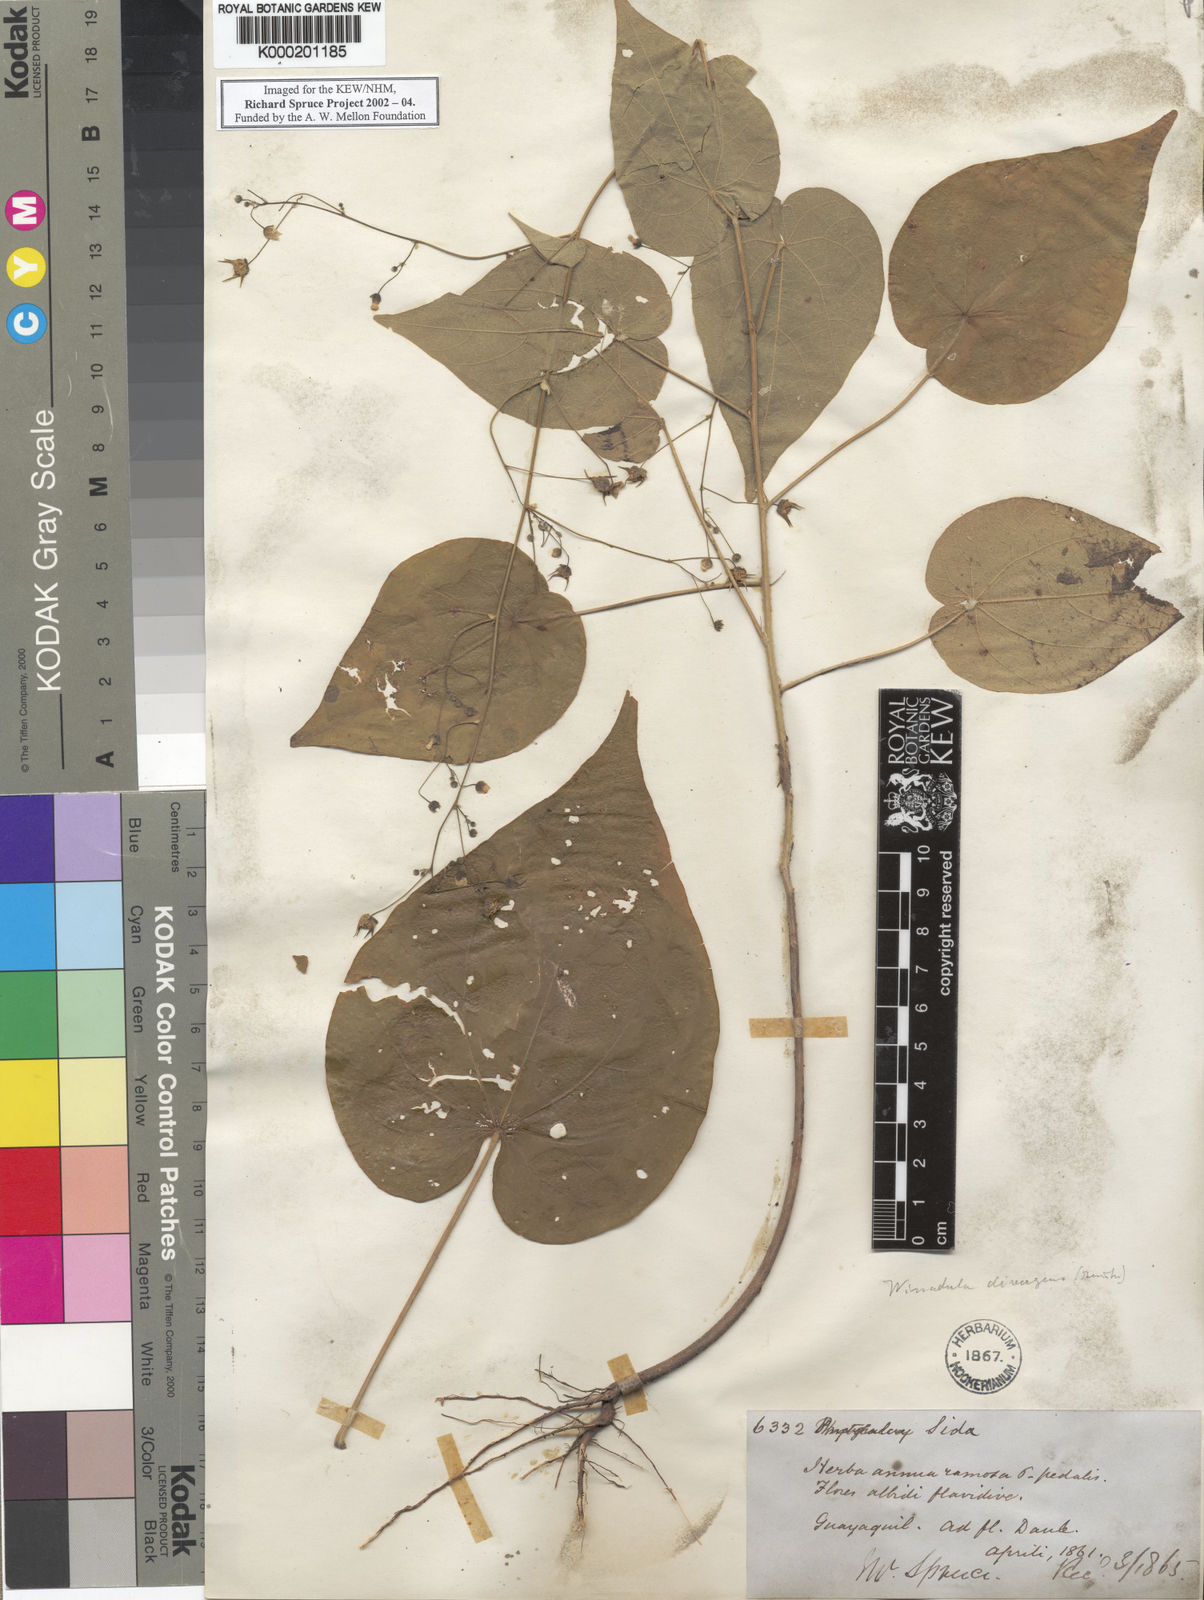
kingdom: Plantae
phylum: Tracheophyta
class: Magnoliopsida
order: Malvales
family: Malvaceae
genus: Wissadula
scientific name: Wissadula
